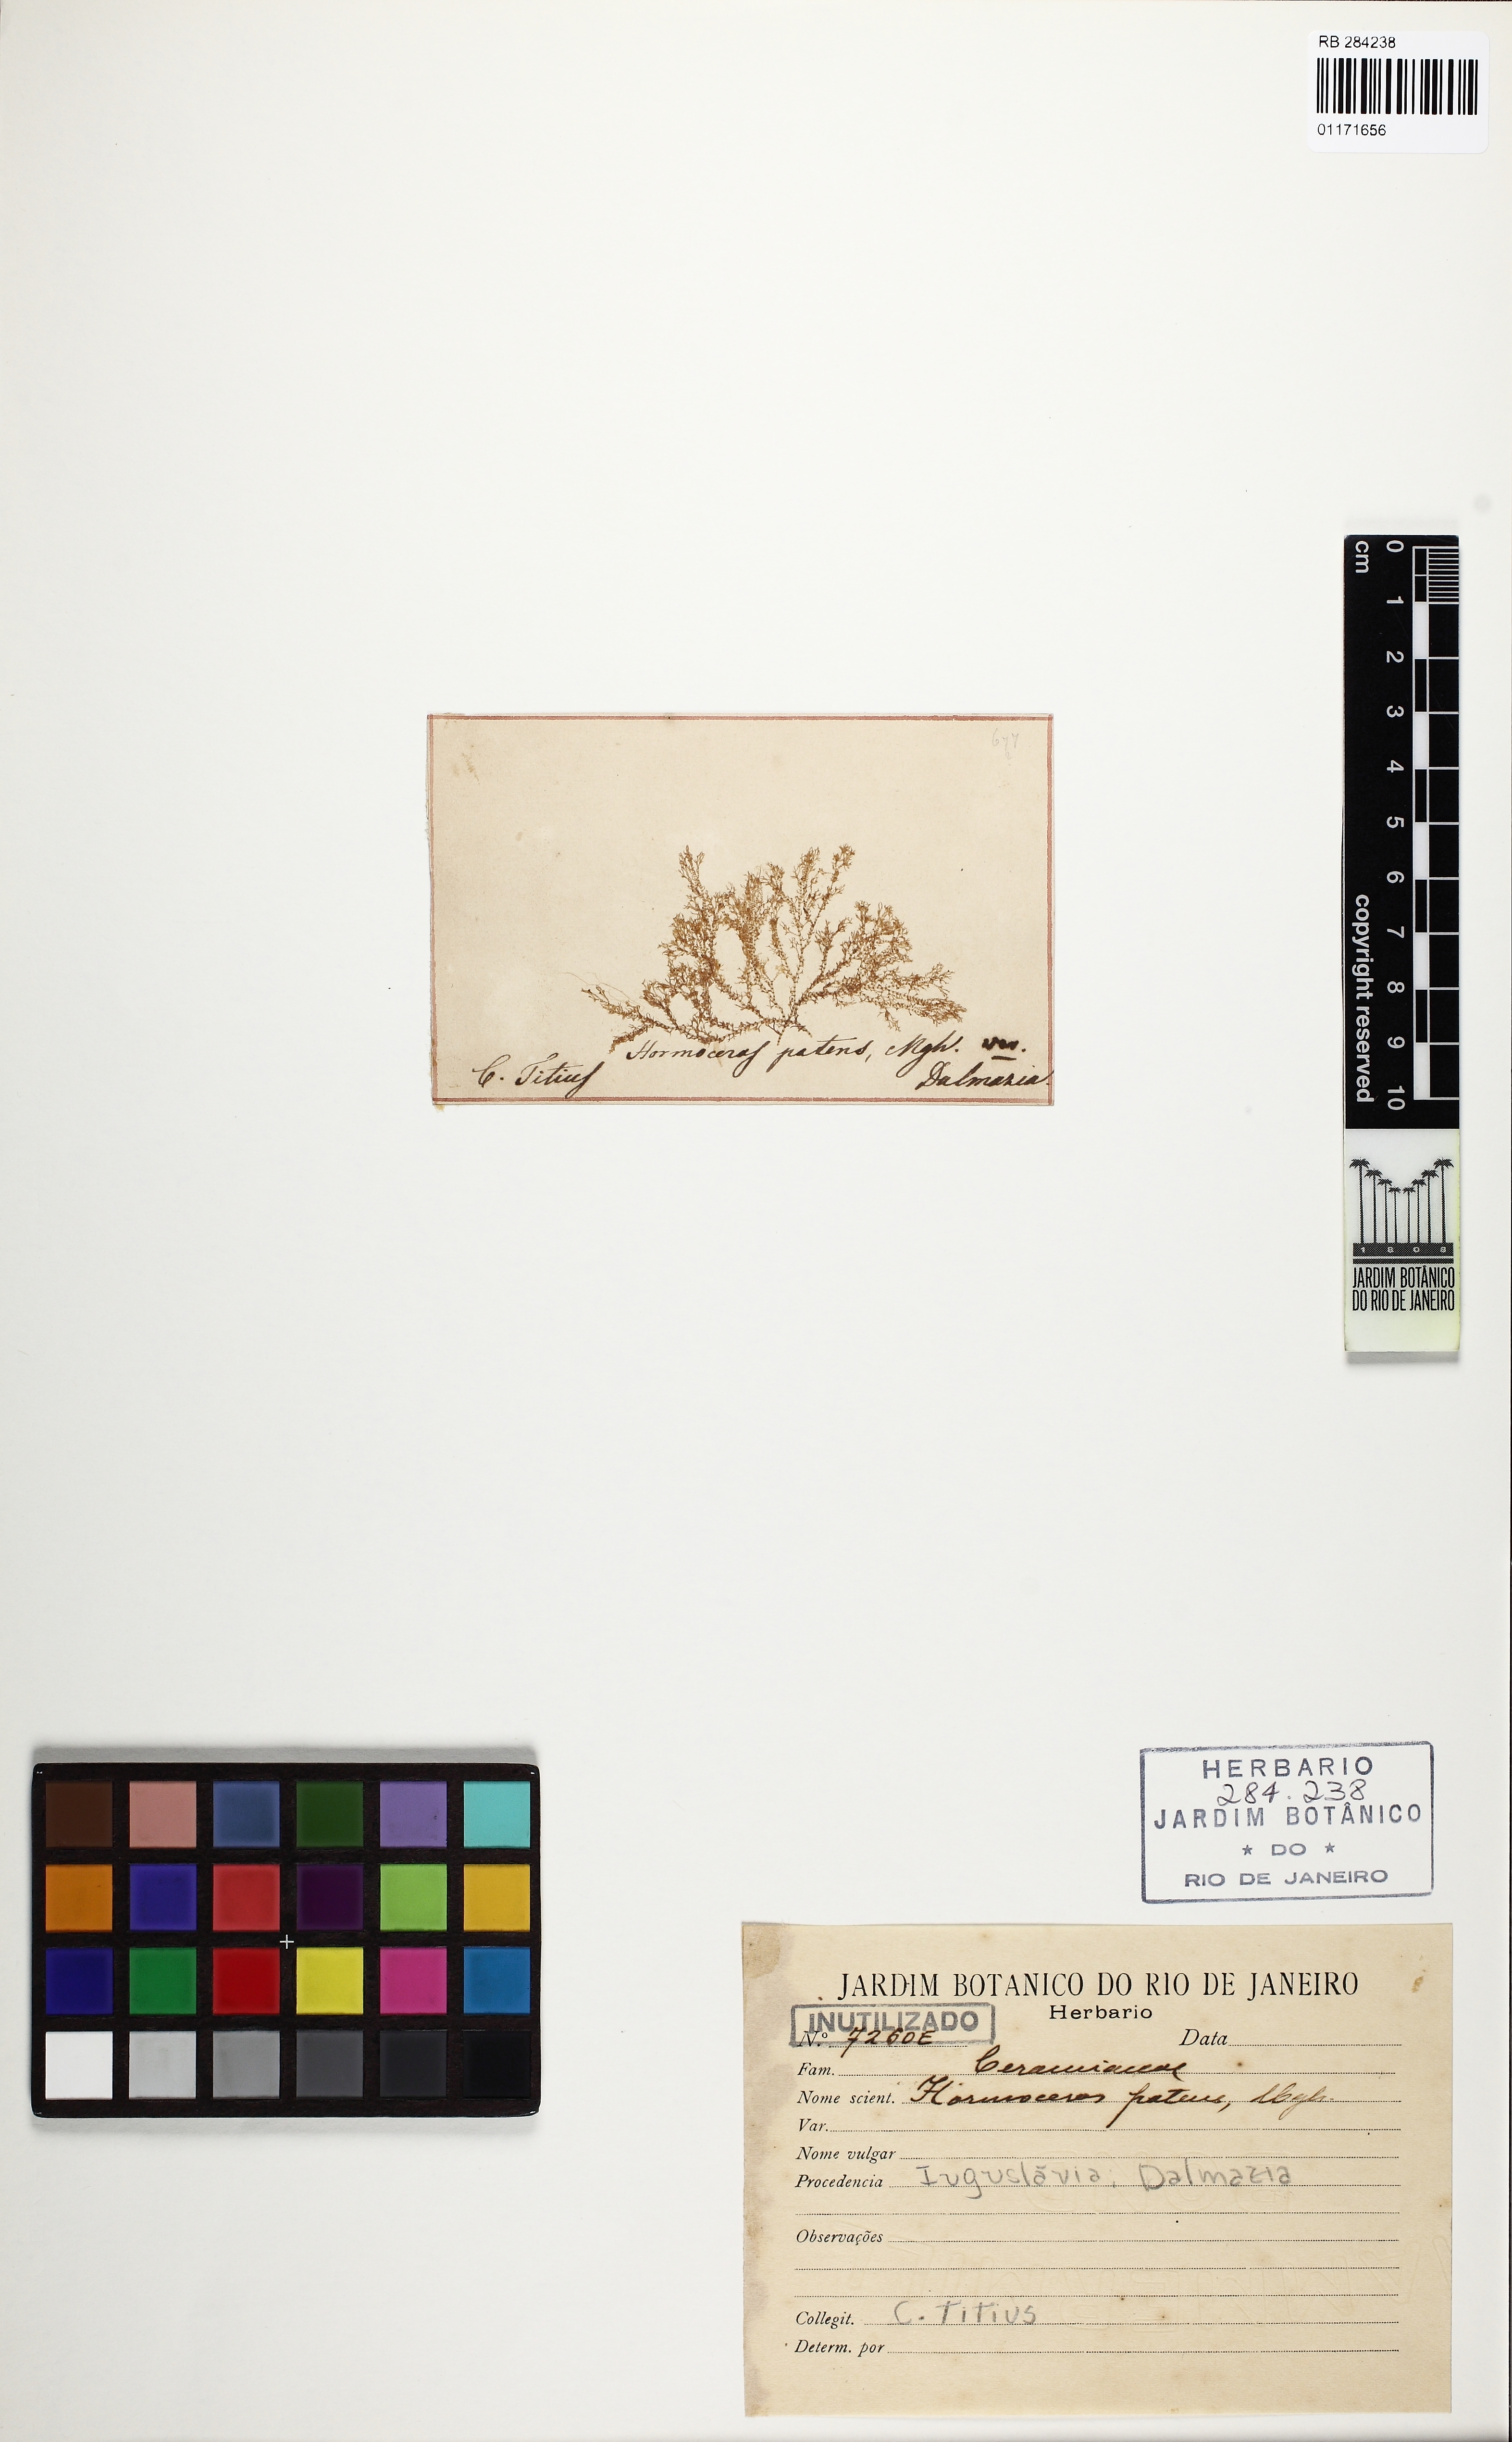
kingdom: Plantae
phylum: Rhodophyta
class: Florideophyceae
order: Ceramiales
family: Ceramiaceae
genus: Ceramium
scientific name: Ceramium
